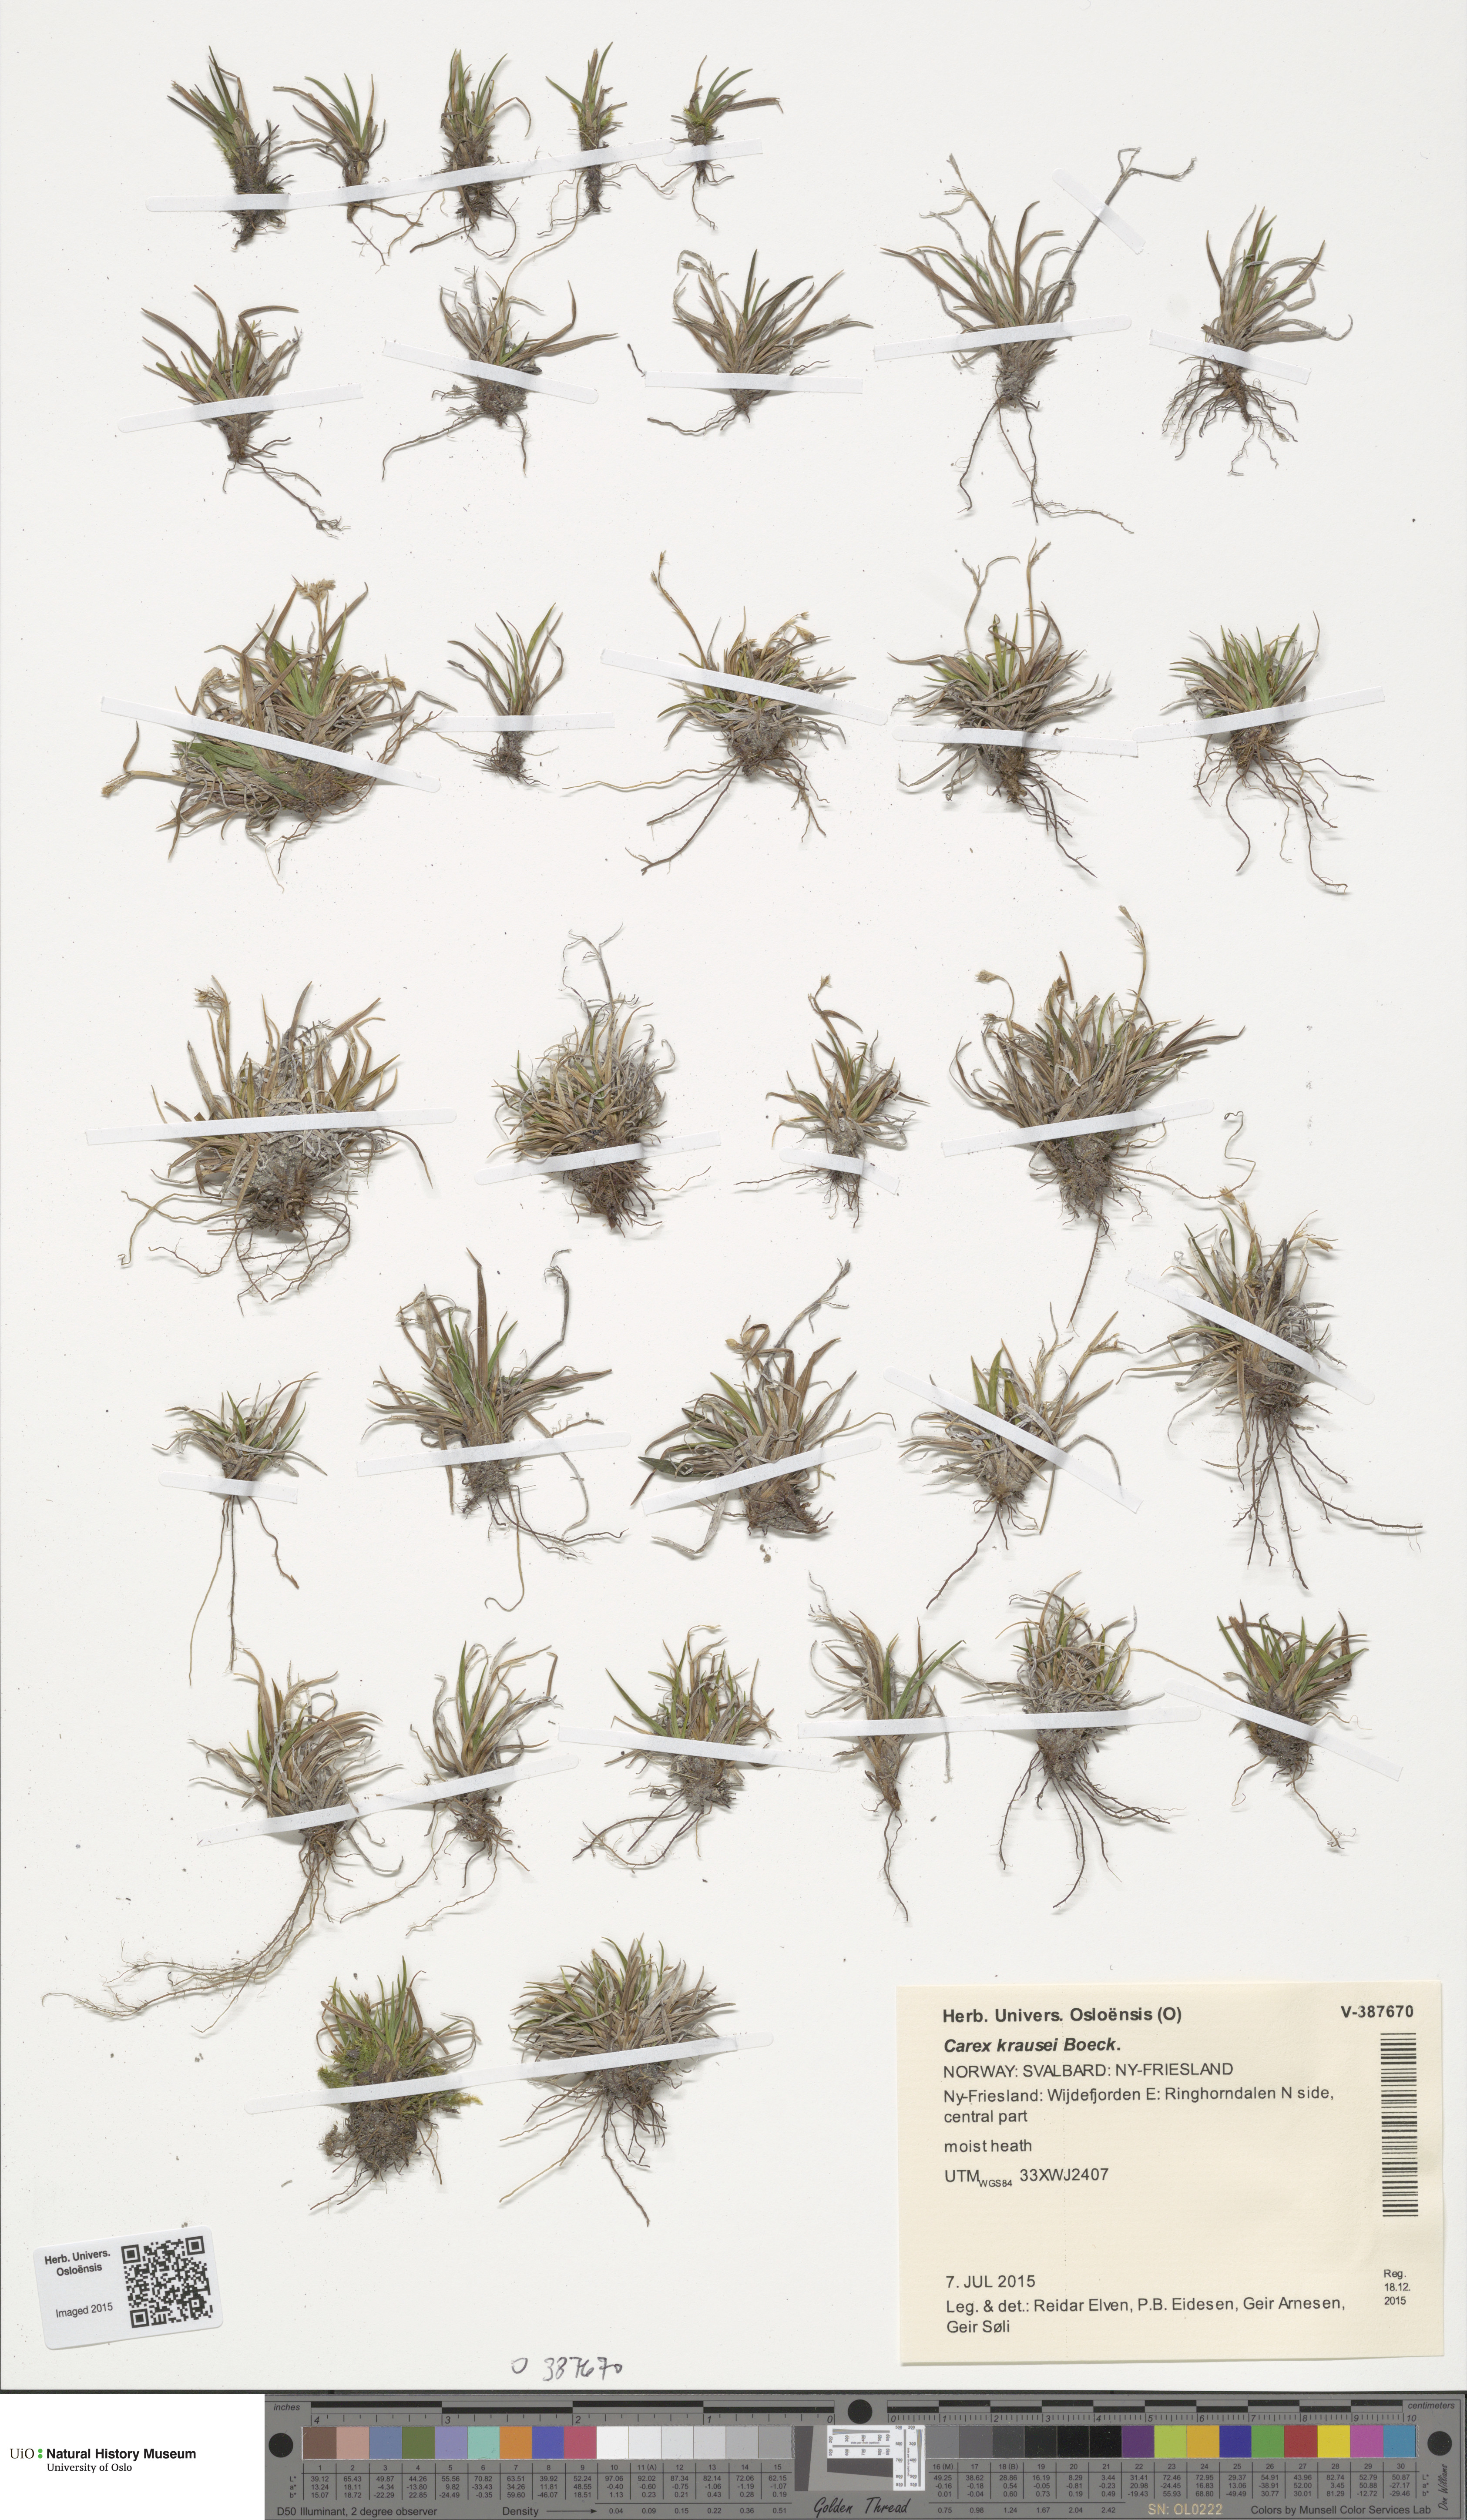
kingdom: Plantae
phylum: Tracheophyta
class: Liliopsida
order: Poales
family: Cyperaceae
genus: Carex
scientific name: Carex krausei
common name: Krause's sedge
